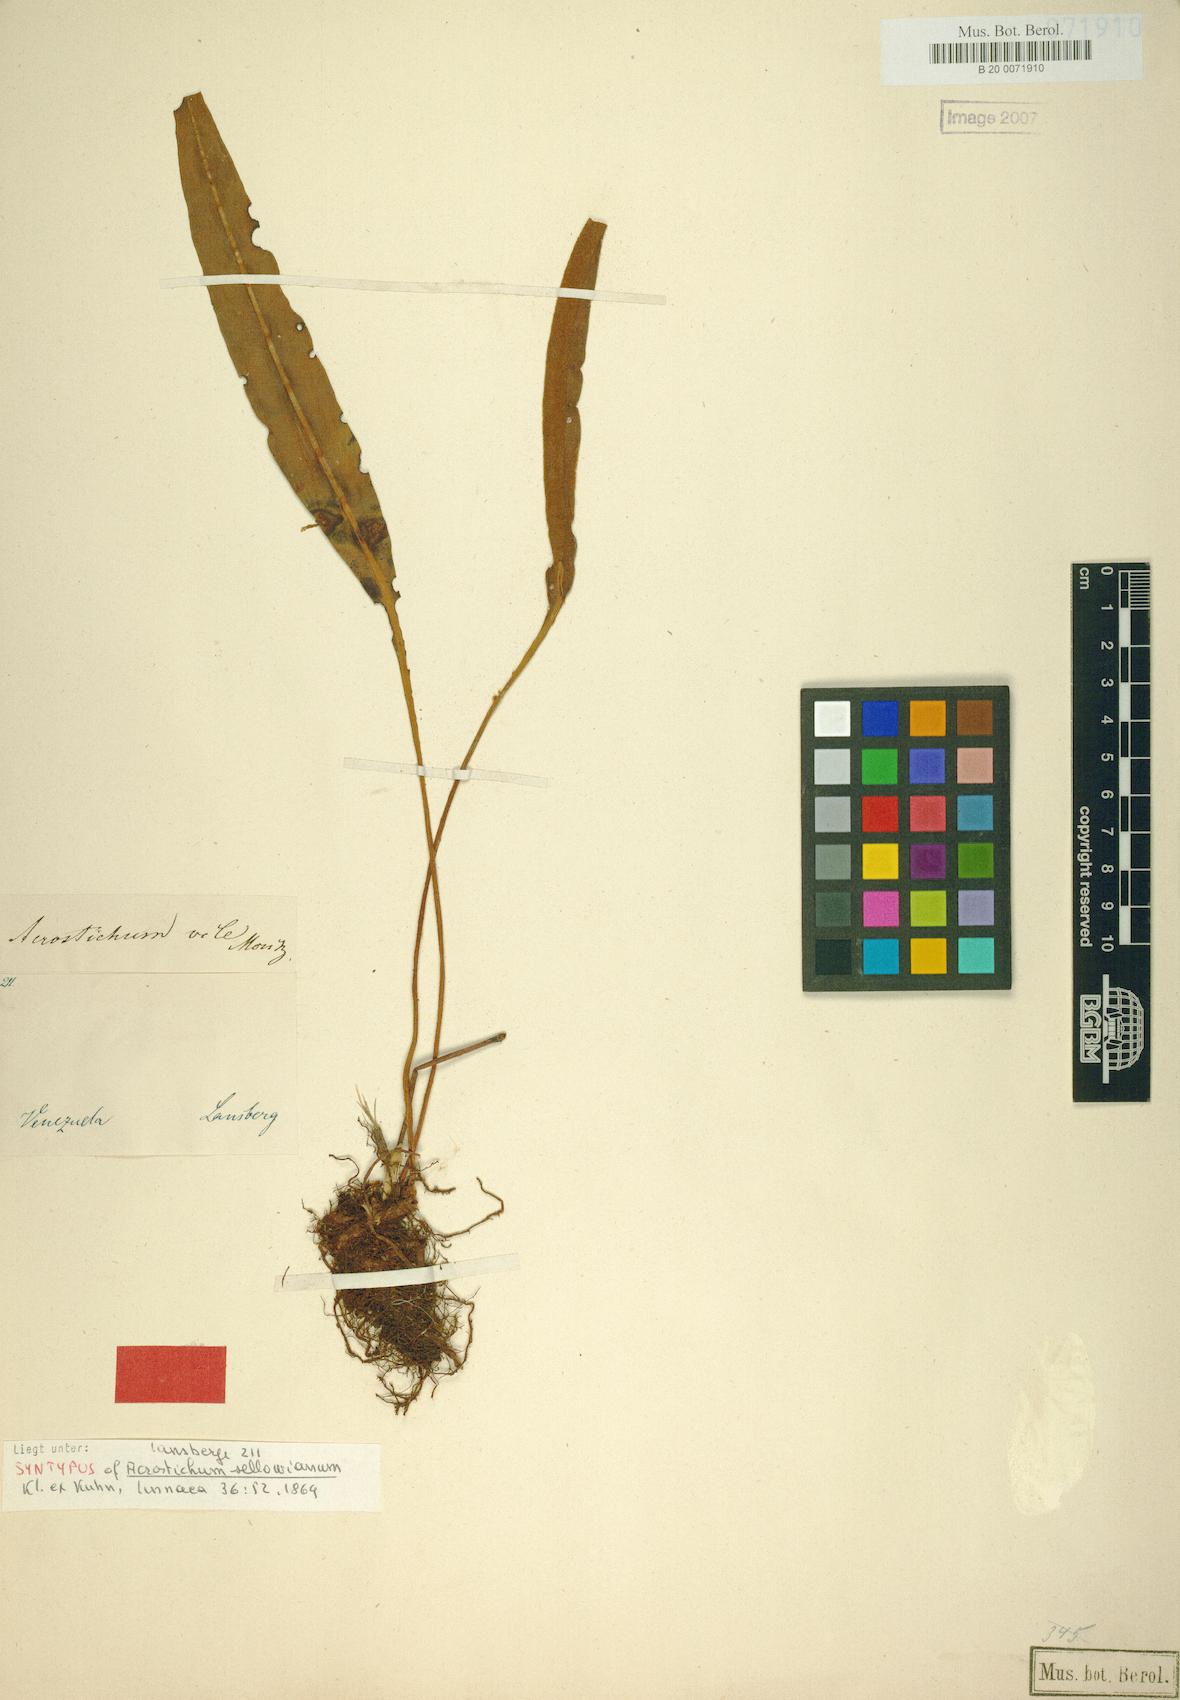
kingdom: Plantae
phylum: Tracheophyta
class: Polypodiopsida
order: Polypodiales
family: Dryopteridaceae
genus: Elaphoglossum
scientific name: Elaphoglossum sellowianum
